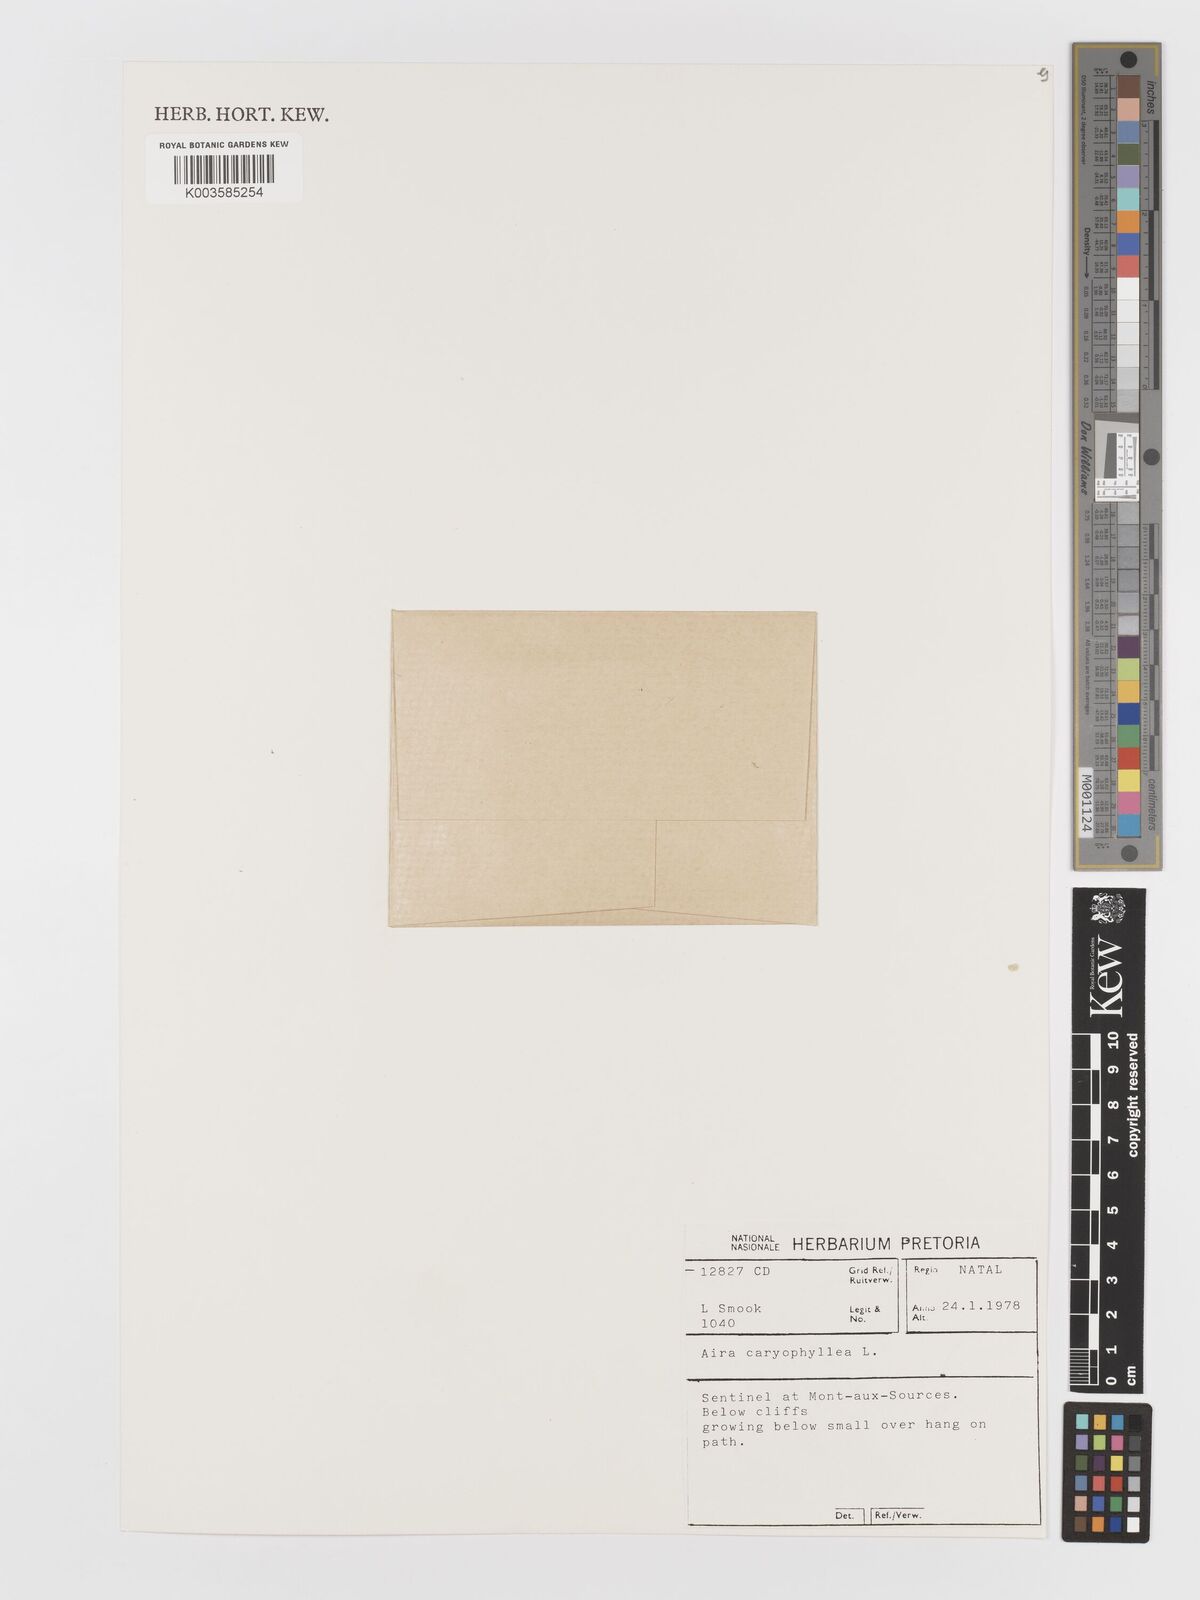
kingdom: Plantae
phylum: Tracheophyta
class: Liliopsida
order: Poales
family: Poaceae
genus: Aira
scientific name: Aira caryophyllea
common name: Silver hairgrass
